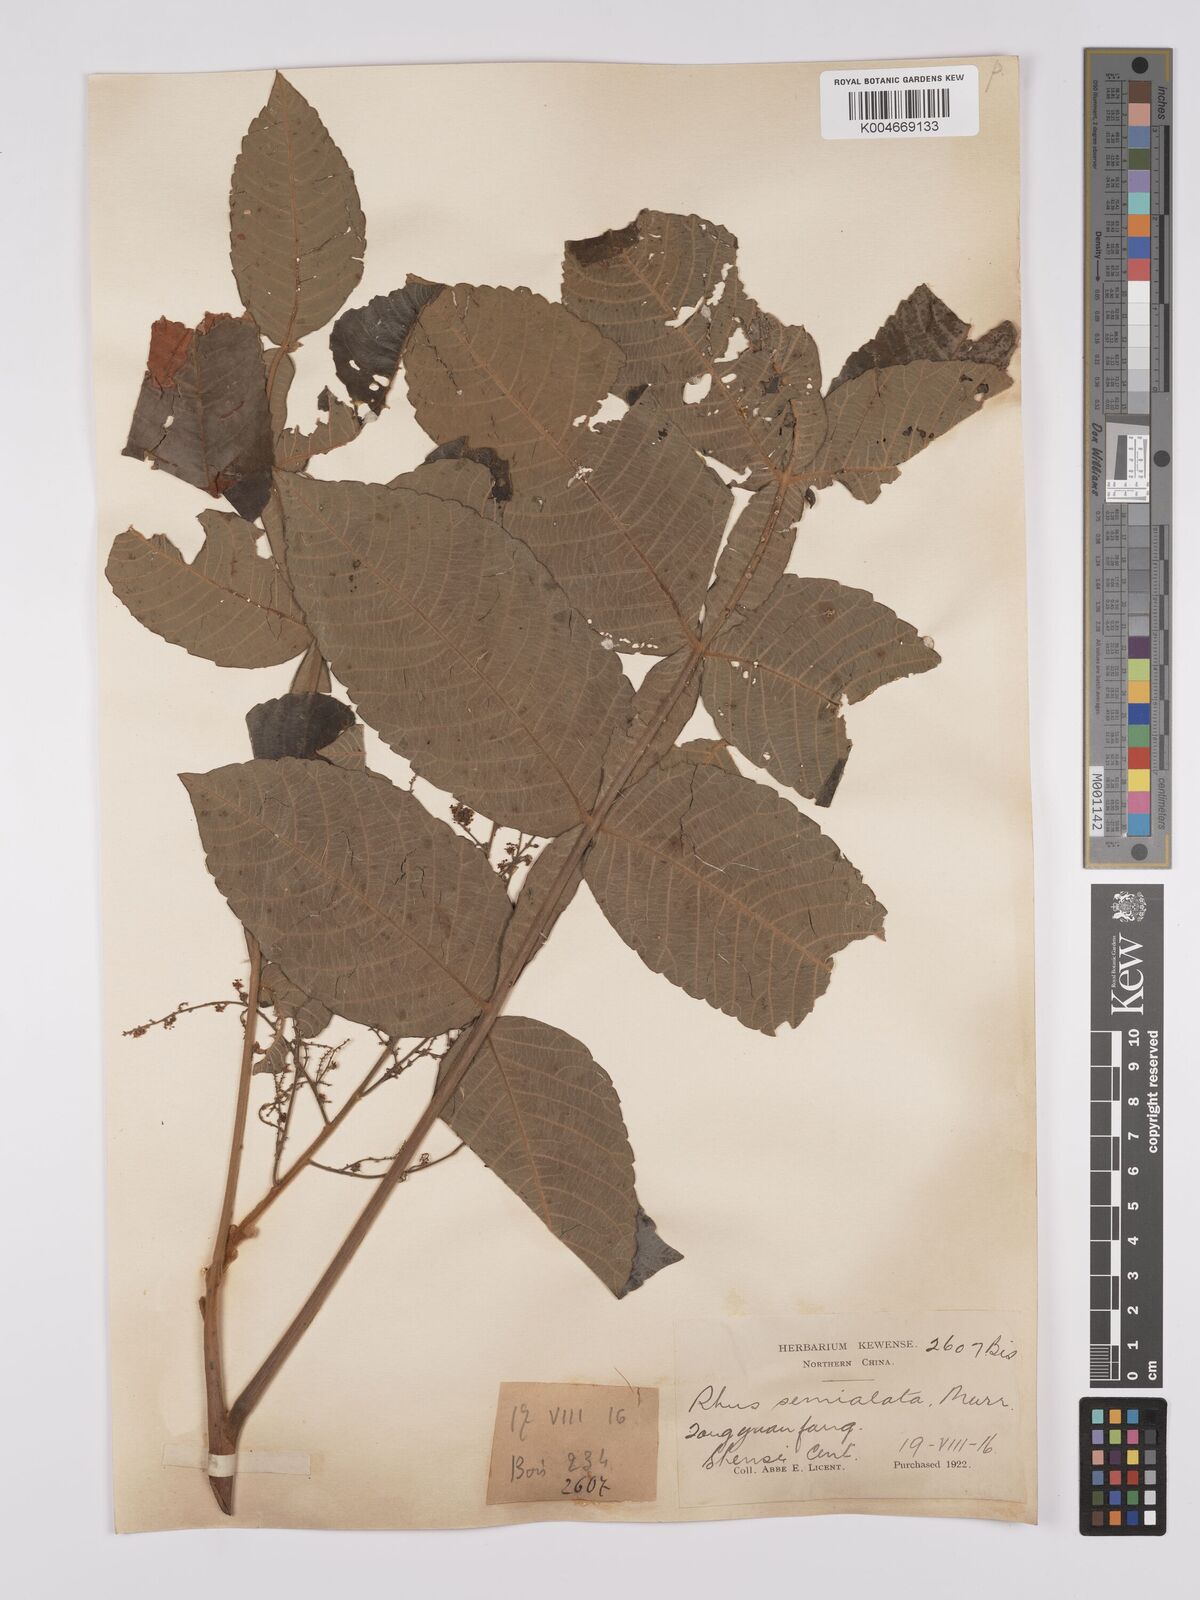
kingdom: Plantae
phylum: Tracheophyta
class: Magnoliopsida
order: Sapindales
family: Anacardiaceae
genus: Rhus
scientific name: Rhus chinensis
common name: Chinese gall
